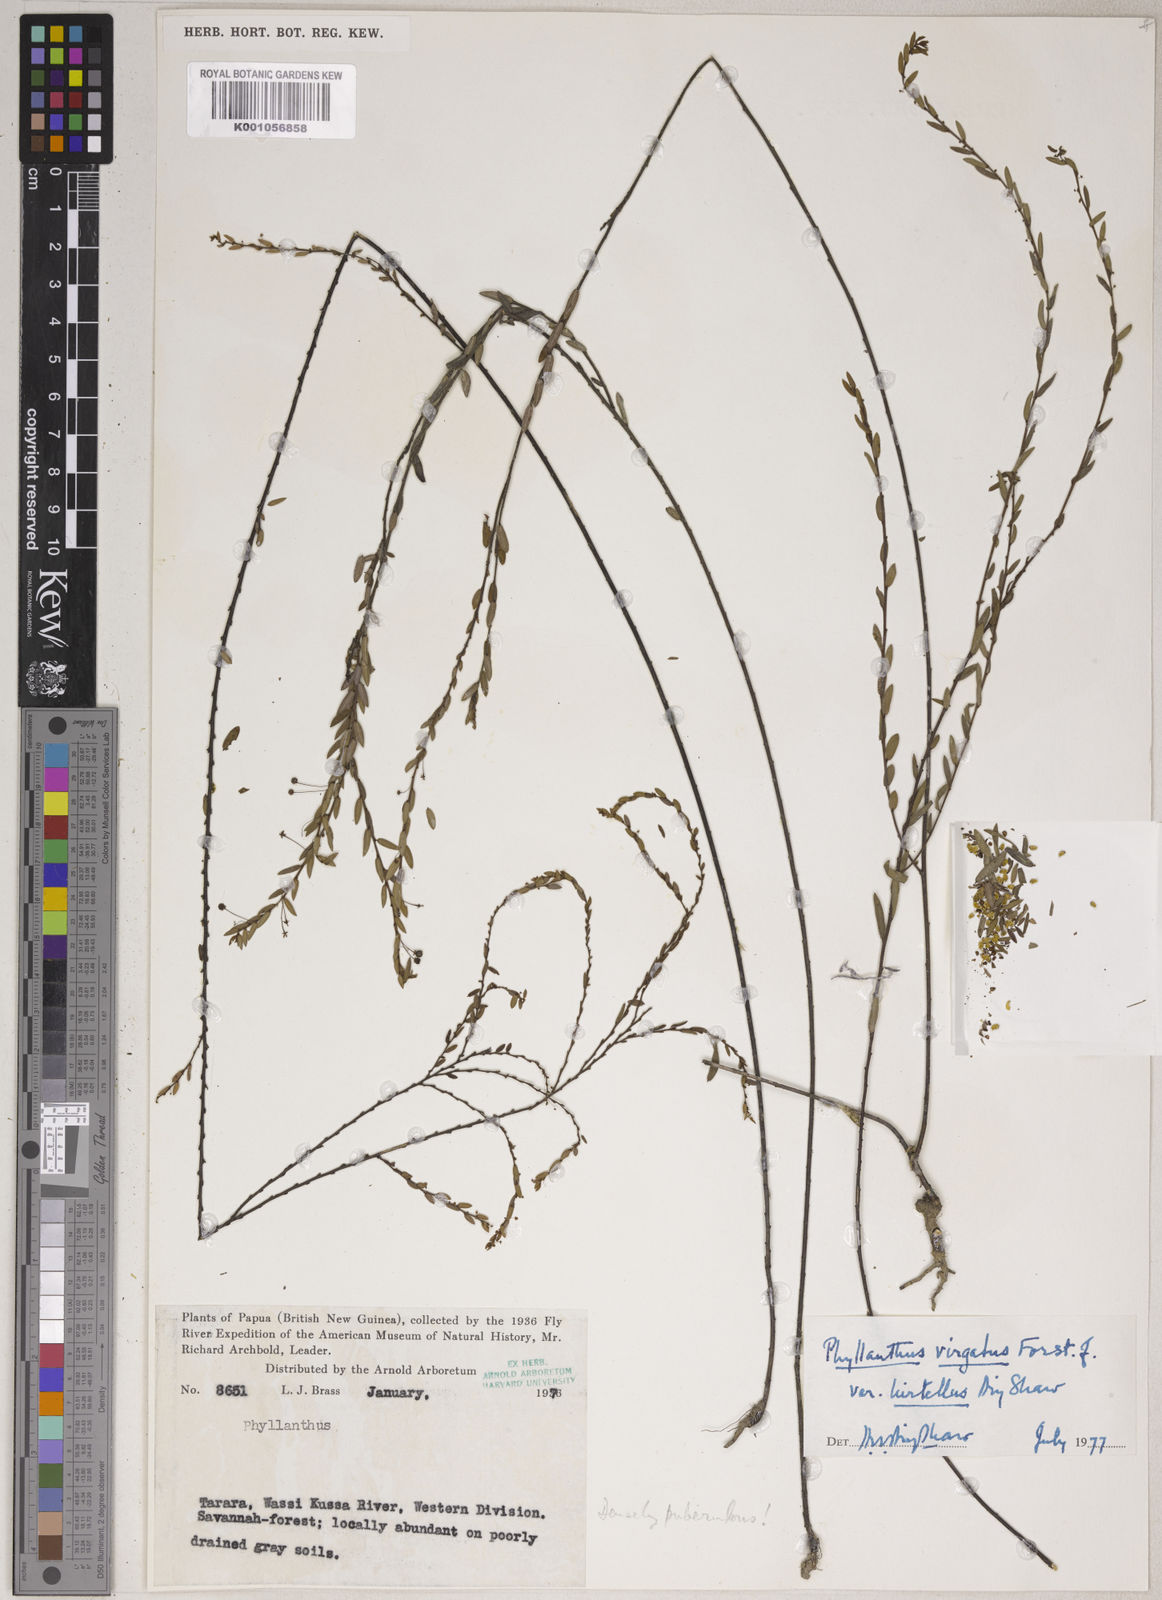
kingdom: Plantae
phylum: Tracheophyta
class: Magnoliopsida
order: Malpighiales
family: Phyllanthaceae
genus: Phyllanthus
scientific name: Phyllanthus
